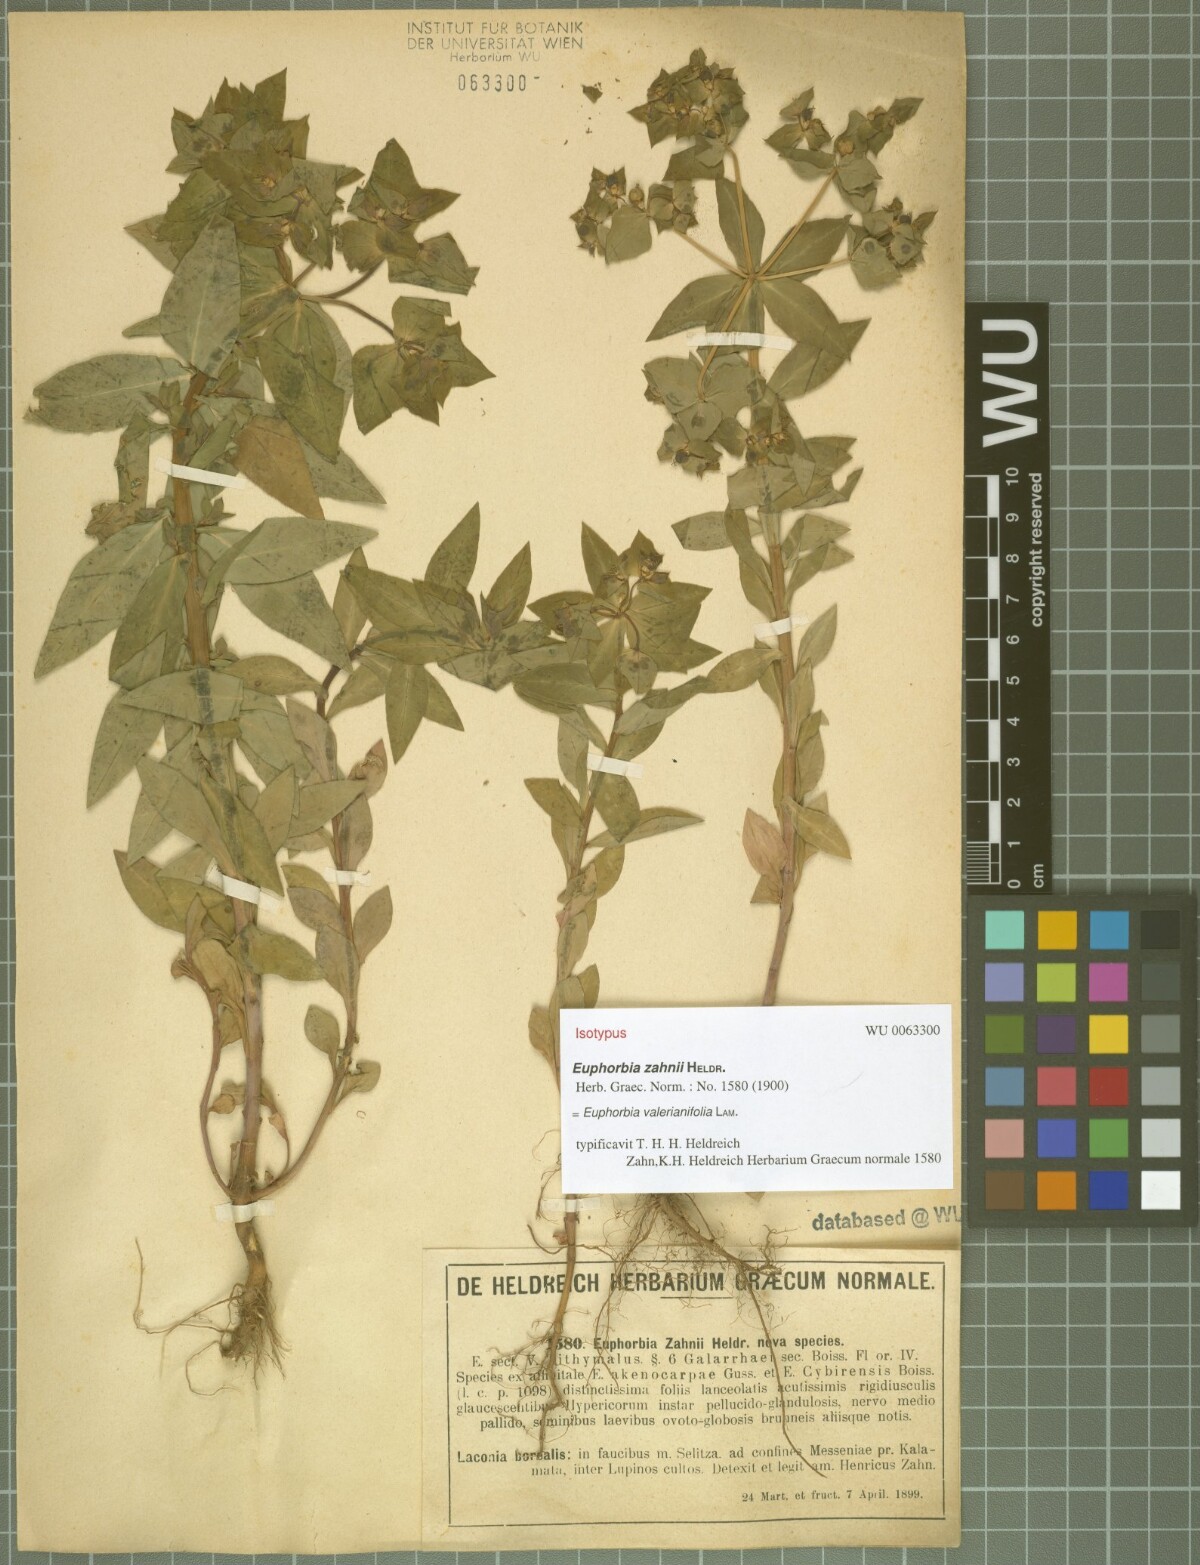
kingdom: Plantae
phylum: Tracheophyta
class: Magnoliopsida
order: Malpighiales
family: Euphorbiaceae
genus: Euphorbia
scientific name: Euphorbia valerianifolia
